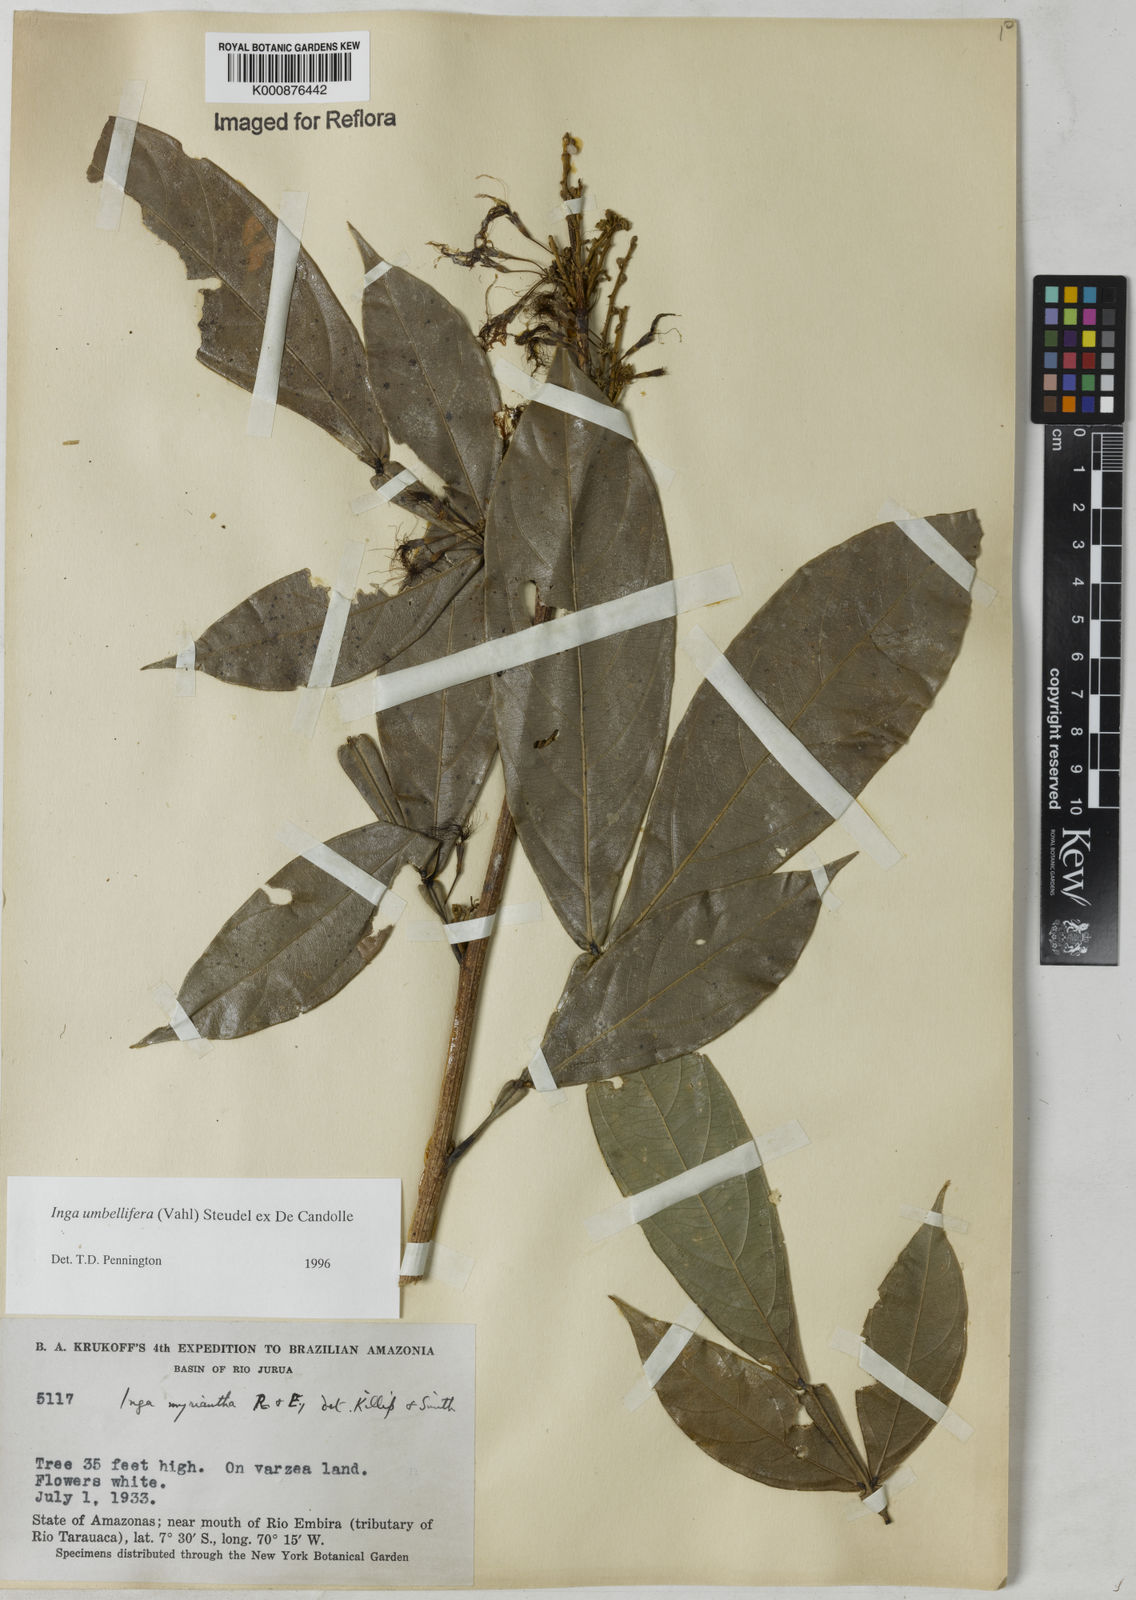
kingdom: Plantae
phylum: Tracheophyta
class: Magnoliopsida
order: Fabales
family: Fabaceae
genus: Inga
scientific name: Inga umbellifera
